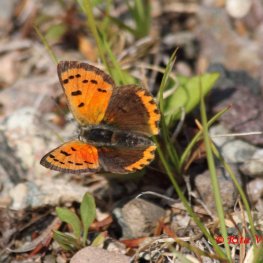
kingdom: Animalia
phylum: Arthropoda
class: Insecta
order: Lepidoptera
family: Lycaenidae
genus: Lycaena
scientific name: Lycaena phlaeas
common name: American Copper
